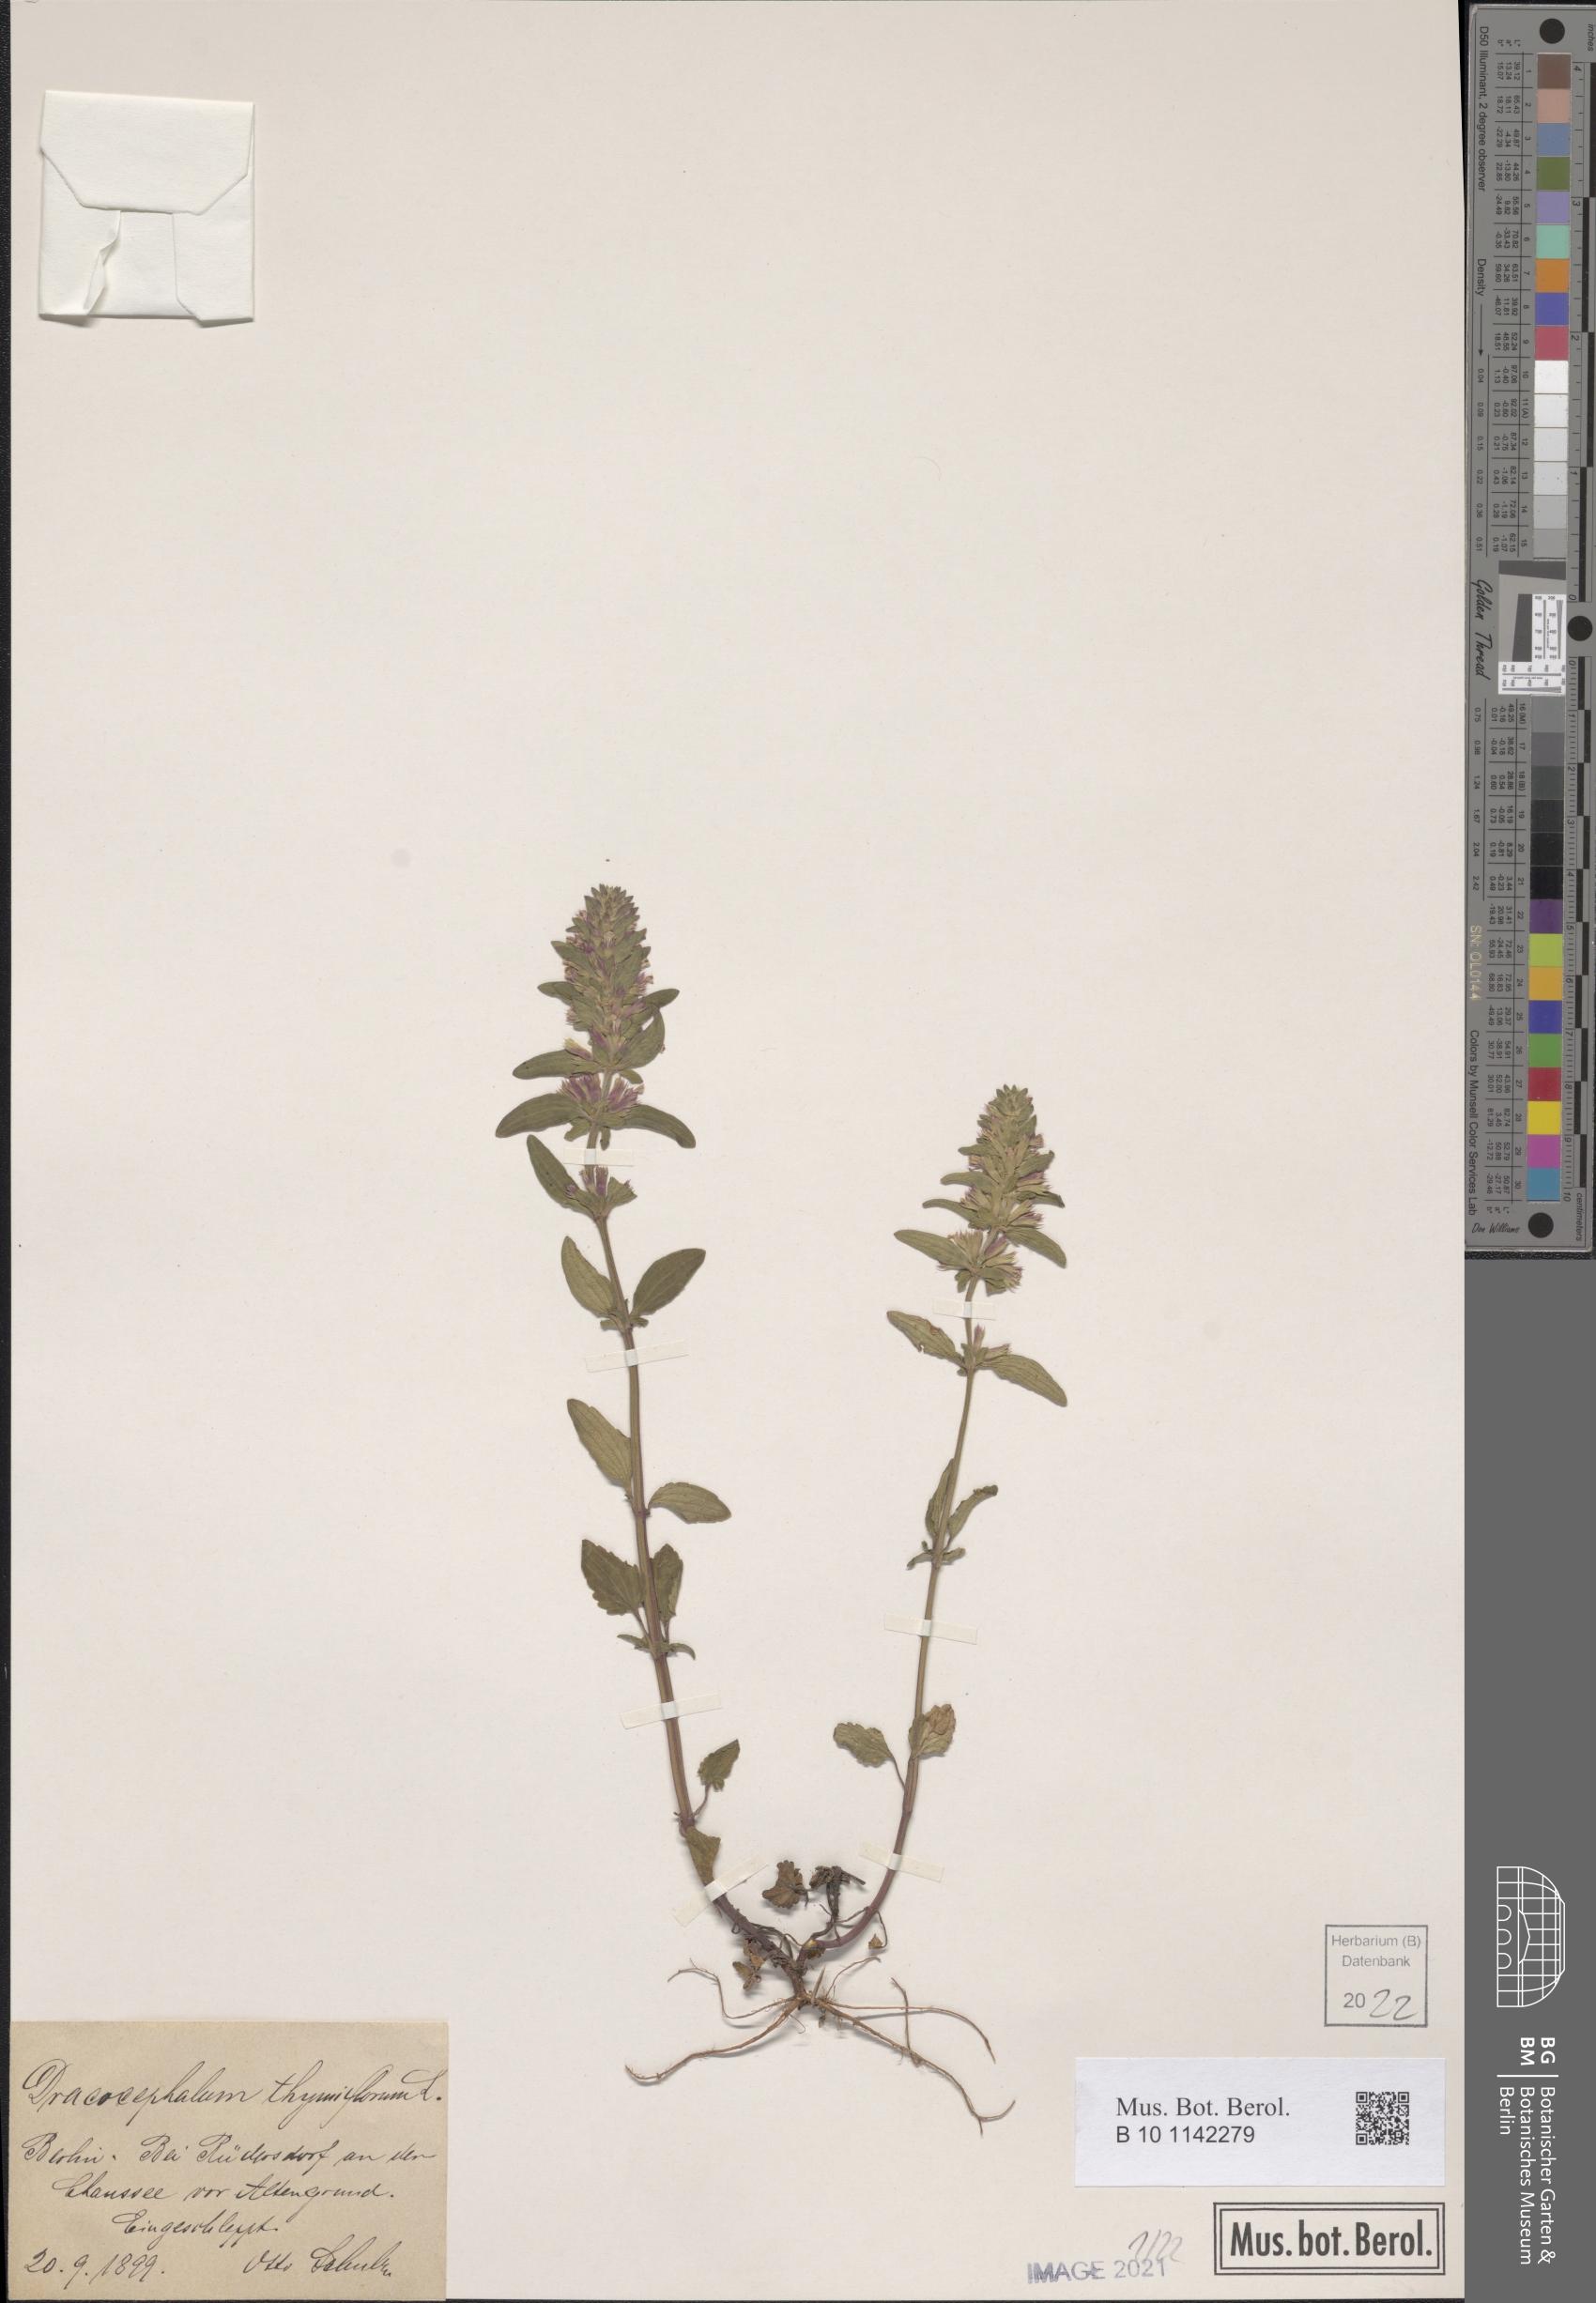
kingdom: Plantae
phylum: Tracheophyta
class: Magnoliopsida
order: Lamiales
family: Lamiaceae
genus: Dracocephalum
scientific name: Dracocephalum thymiflorum
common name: Thymeleaf dragonhead
